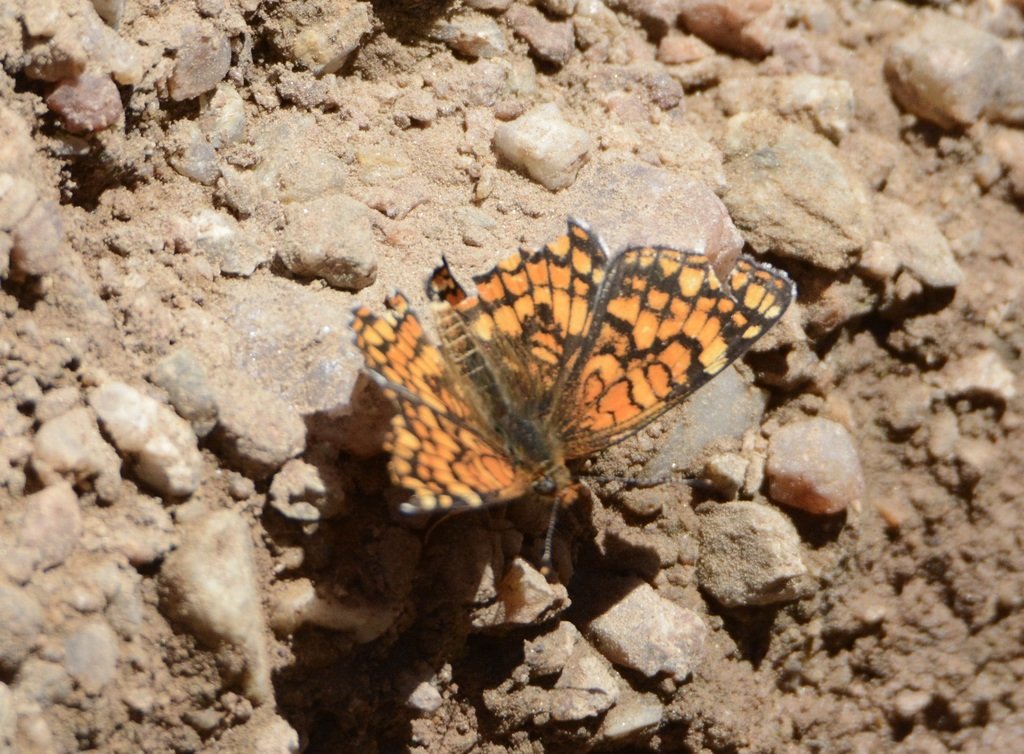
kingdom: Animalia
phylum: Arthropoda
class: Insecta
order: Lepidoptera
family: Nymphalidae
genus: Chlosyne
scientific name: Chlosyne palla
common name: Northern Checkerspot
